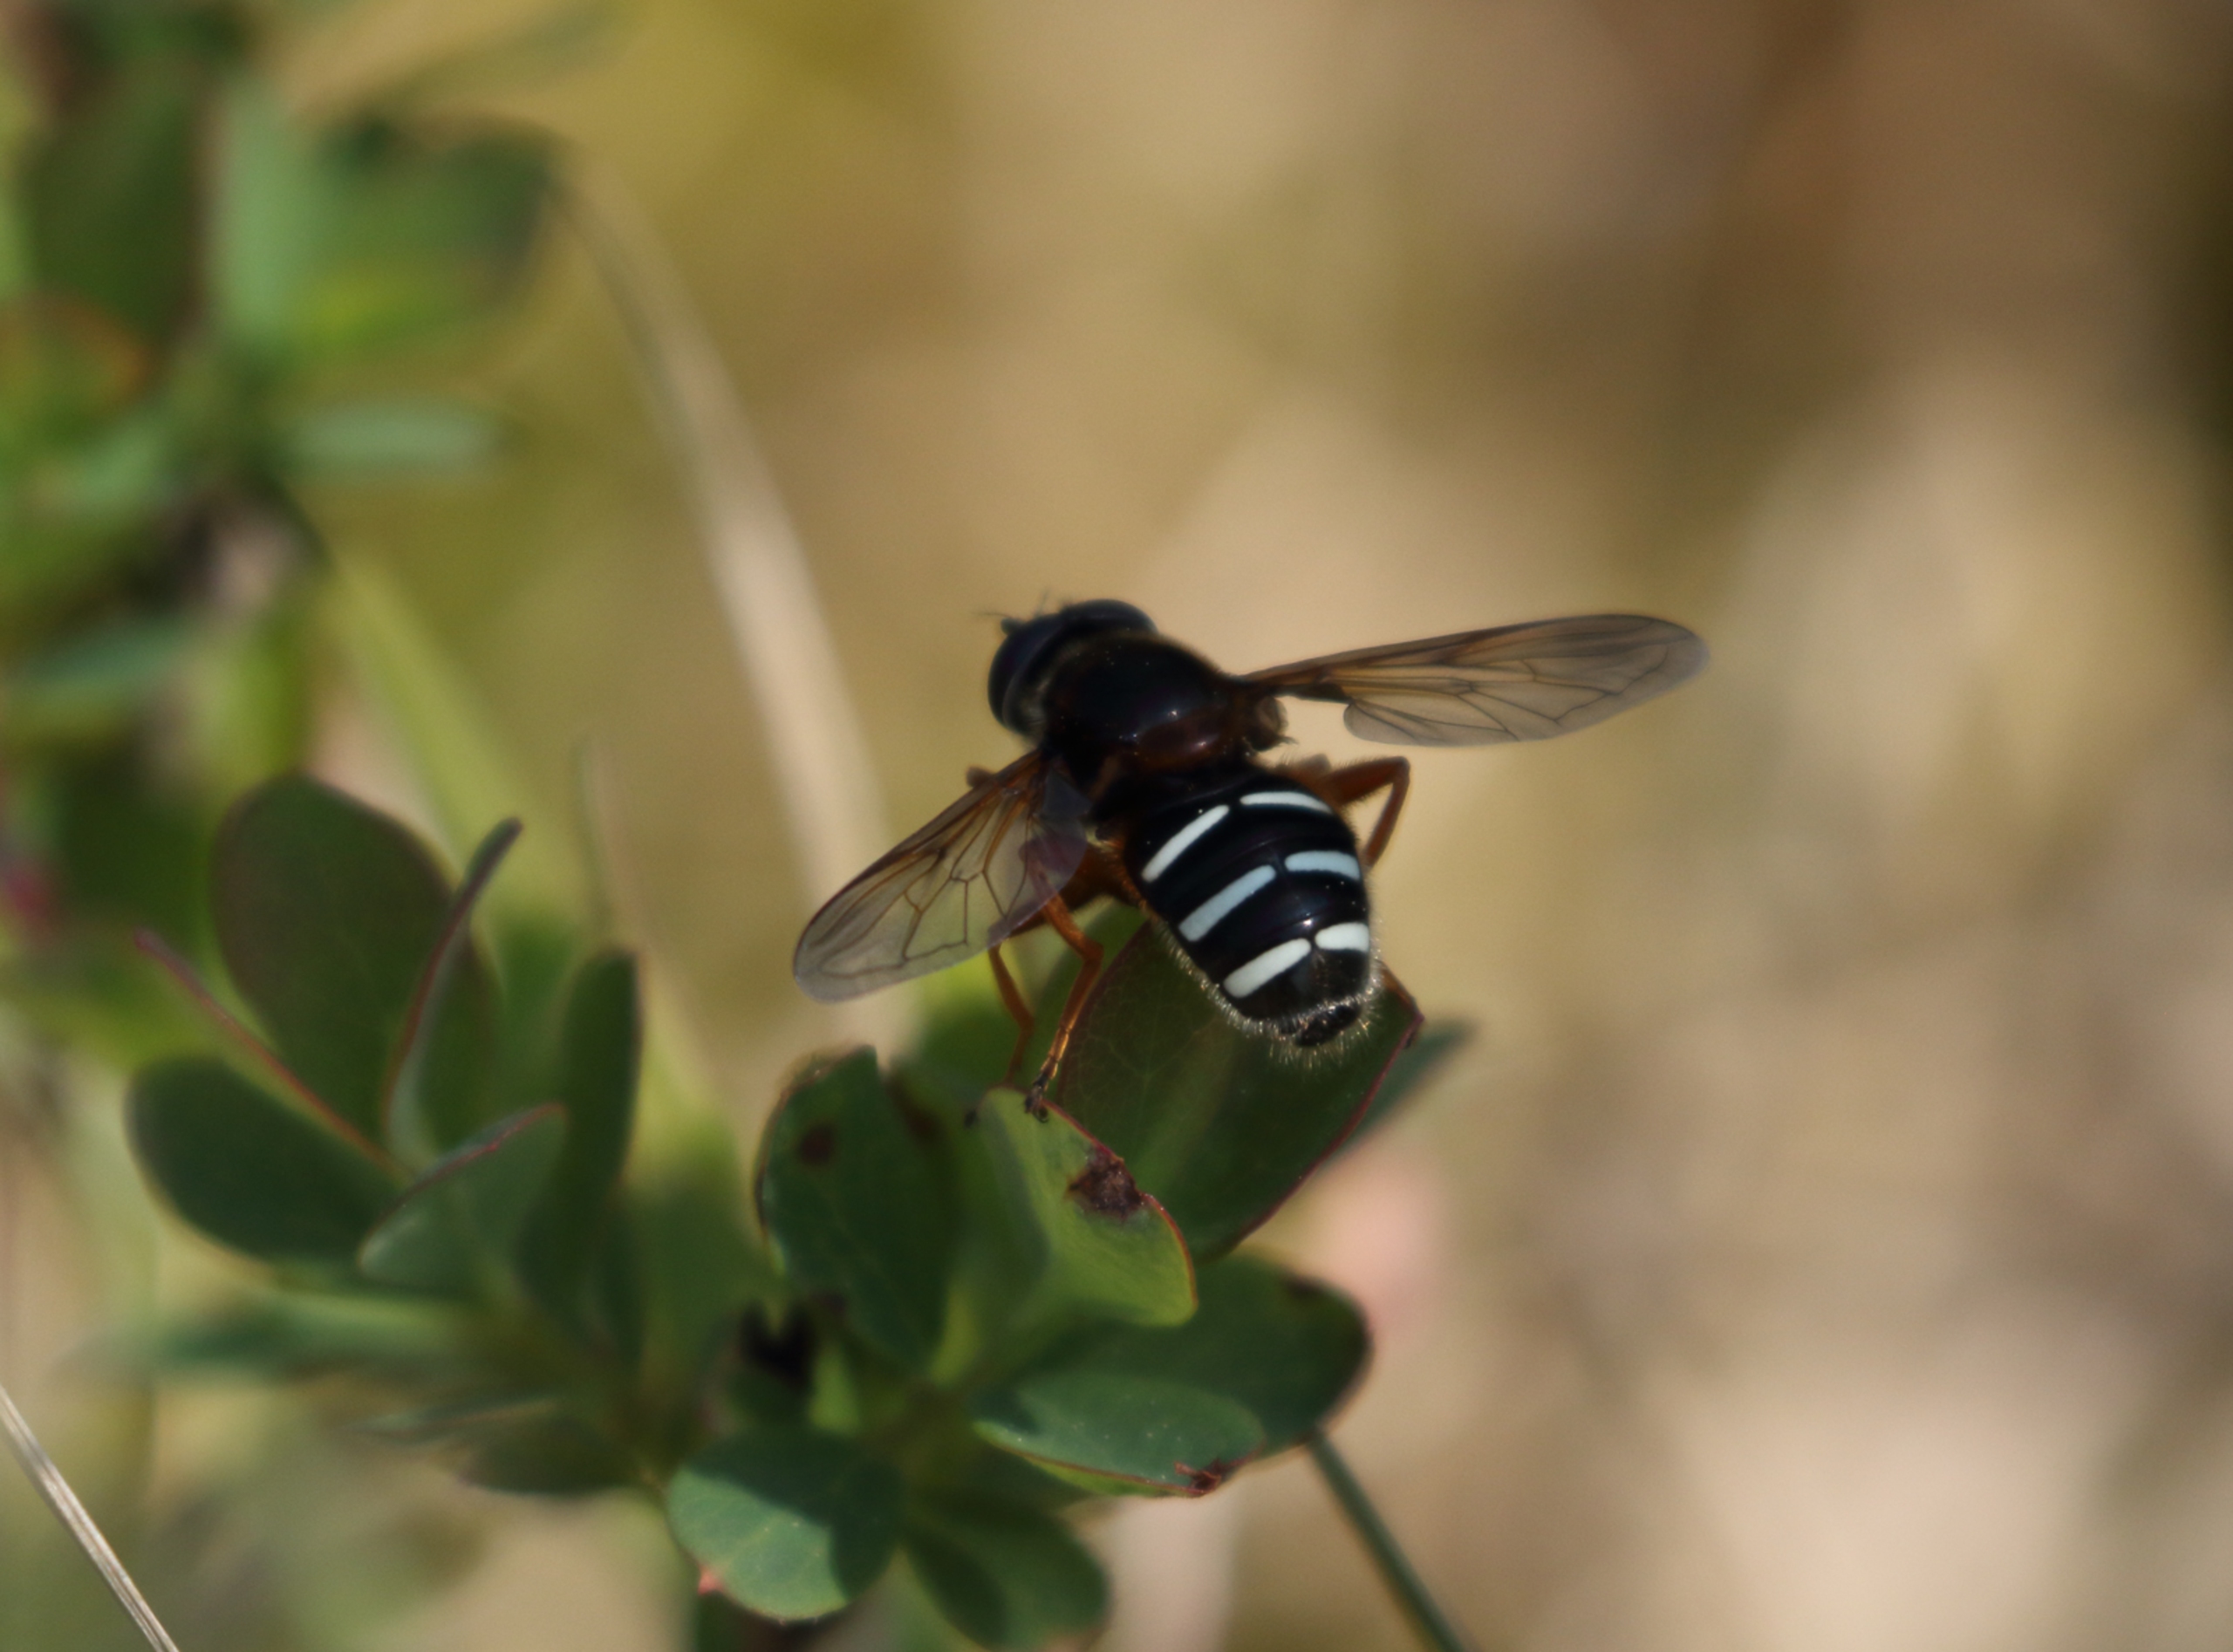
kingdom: Animalia
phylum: Arthropoda
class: Insecta
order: Diptera
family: Syrphidae
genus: Sericomyia
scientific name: Sericomyia lappona
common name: Tidlig silkesvirreflue
